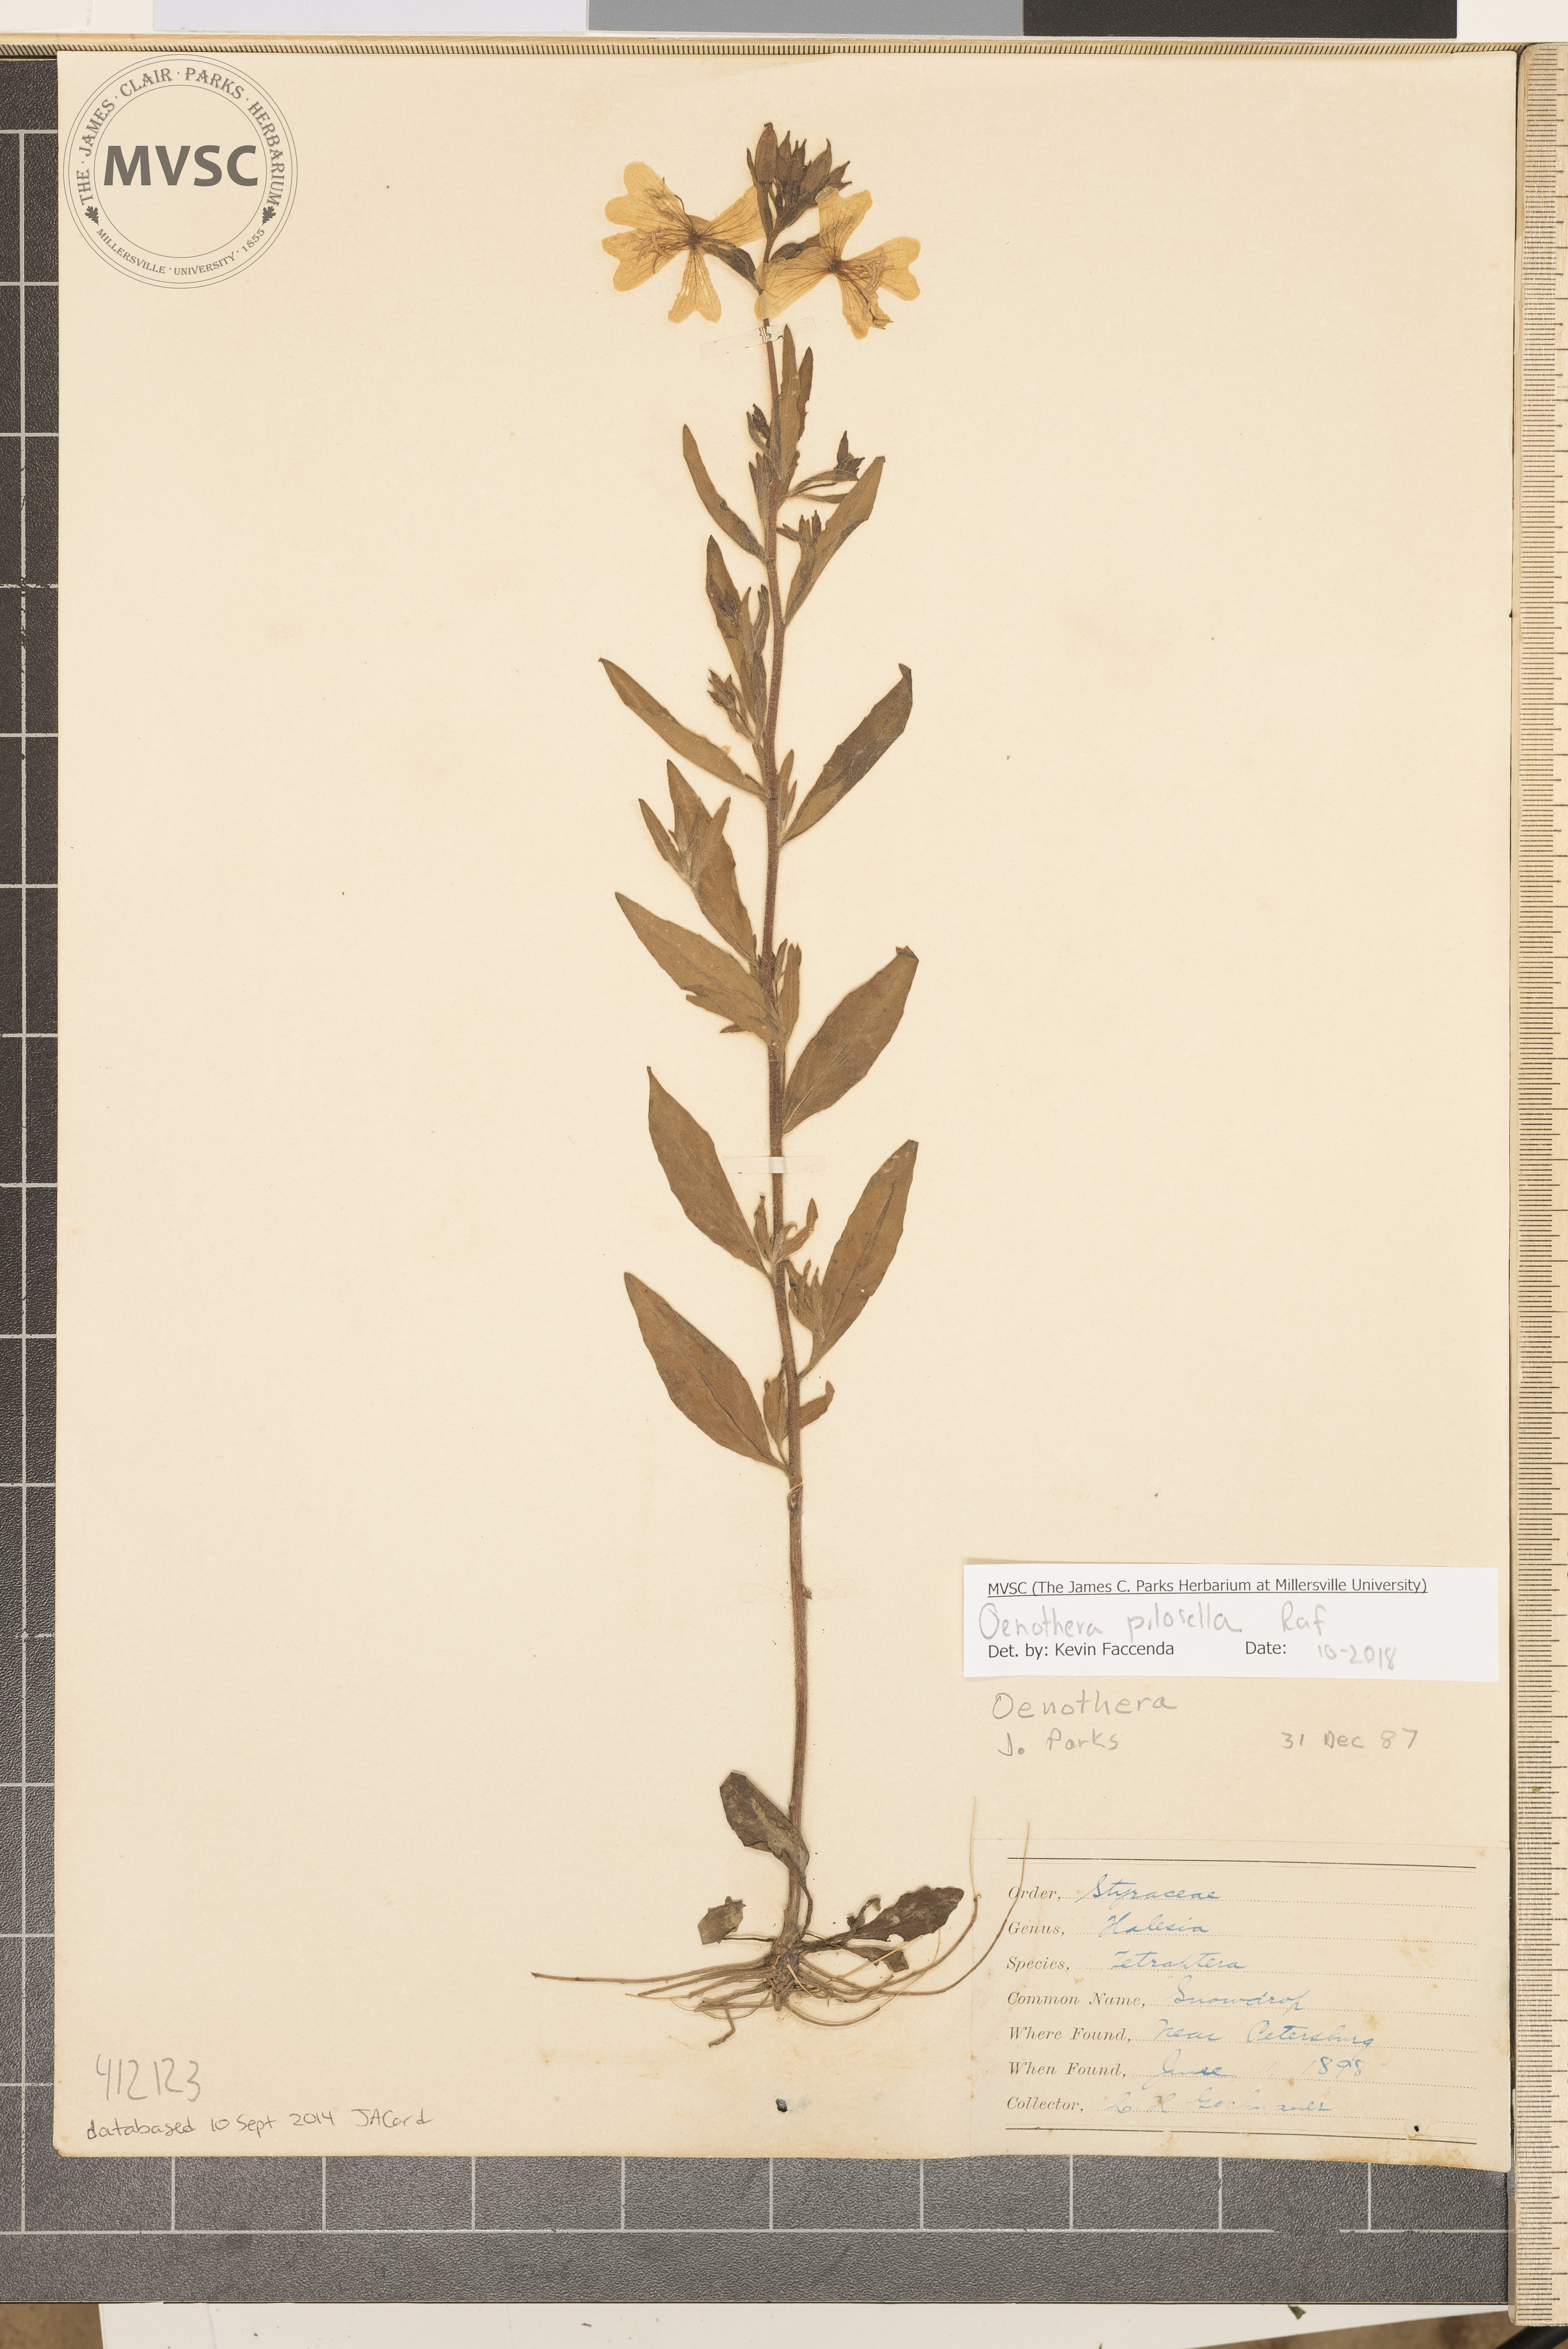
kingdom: Plantae
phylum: Tracheophyta
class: Magnoliopsida
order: Myrtales
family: Onagraceae
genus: Oenothera
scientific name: Oenothera fruticosa
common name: Southern sundrops
